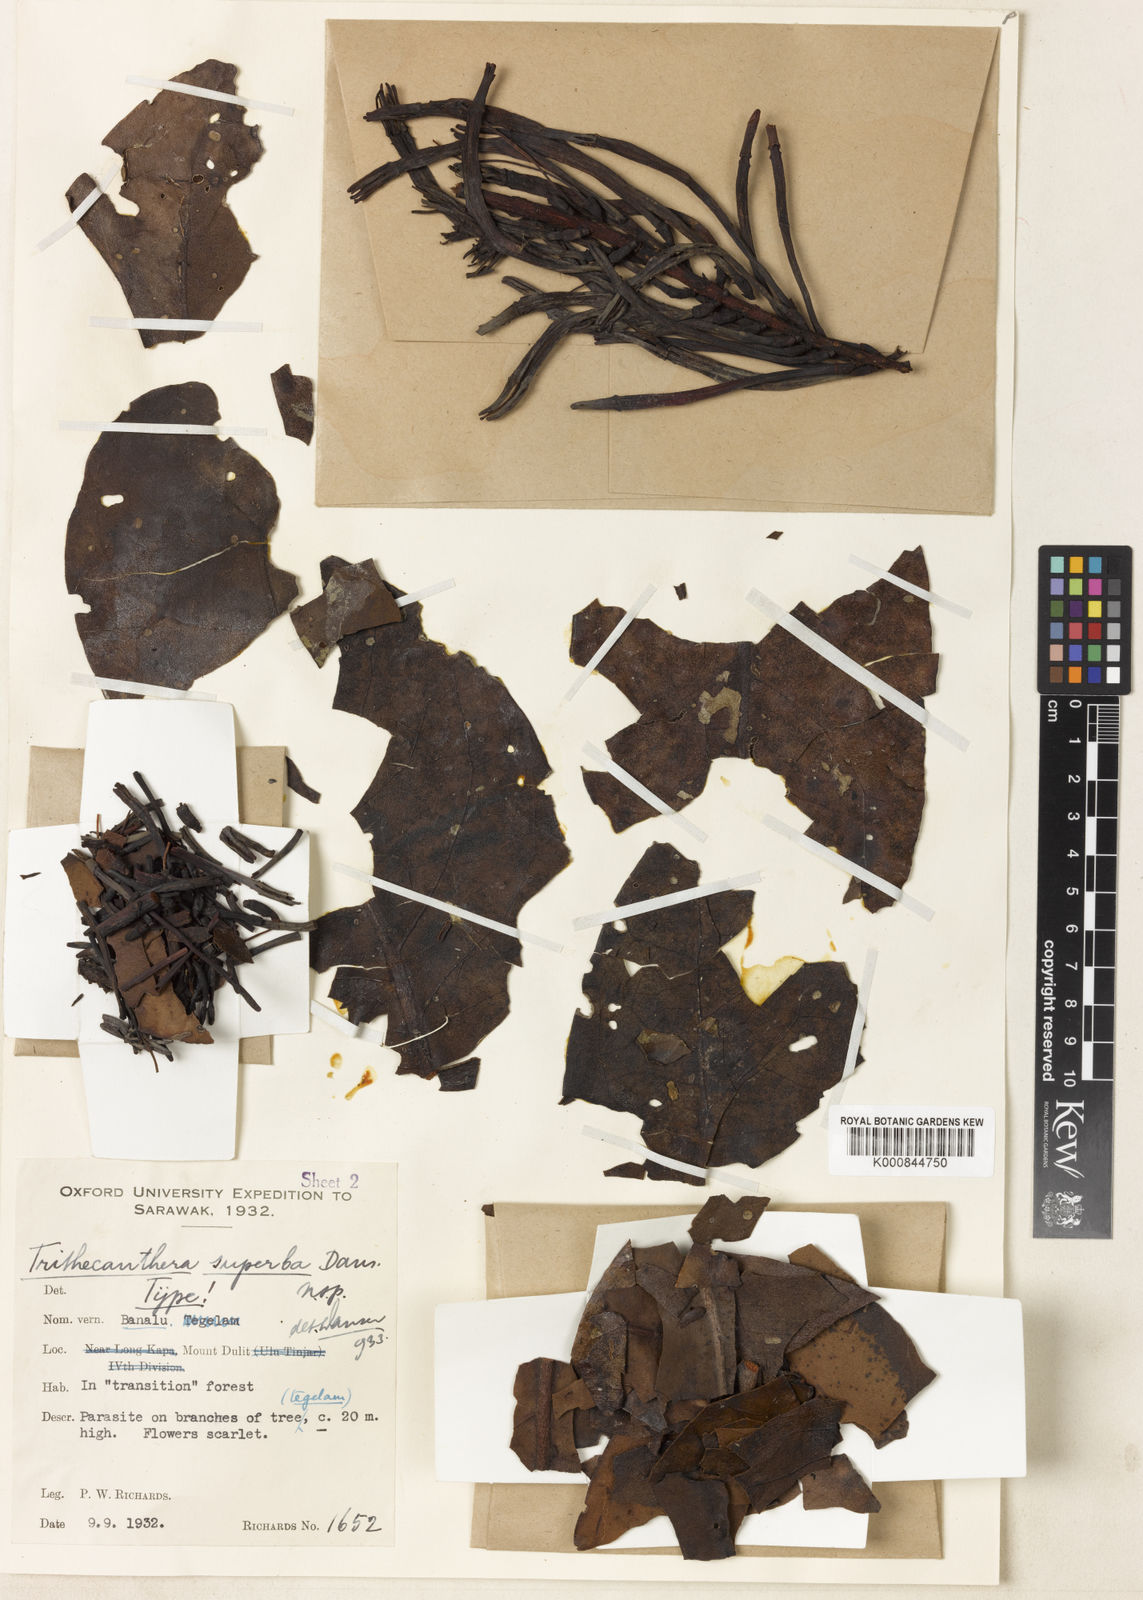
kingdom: Plantae
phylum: Tracheophyta
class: Magnoliopsida
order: Santalales
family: Loranthaceae
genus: Trithecanthera
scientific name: Trithecanthera superba
